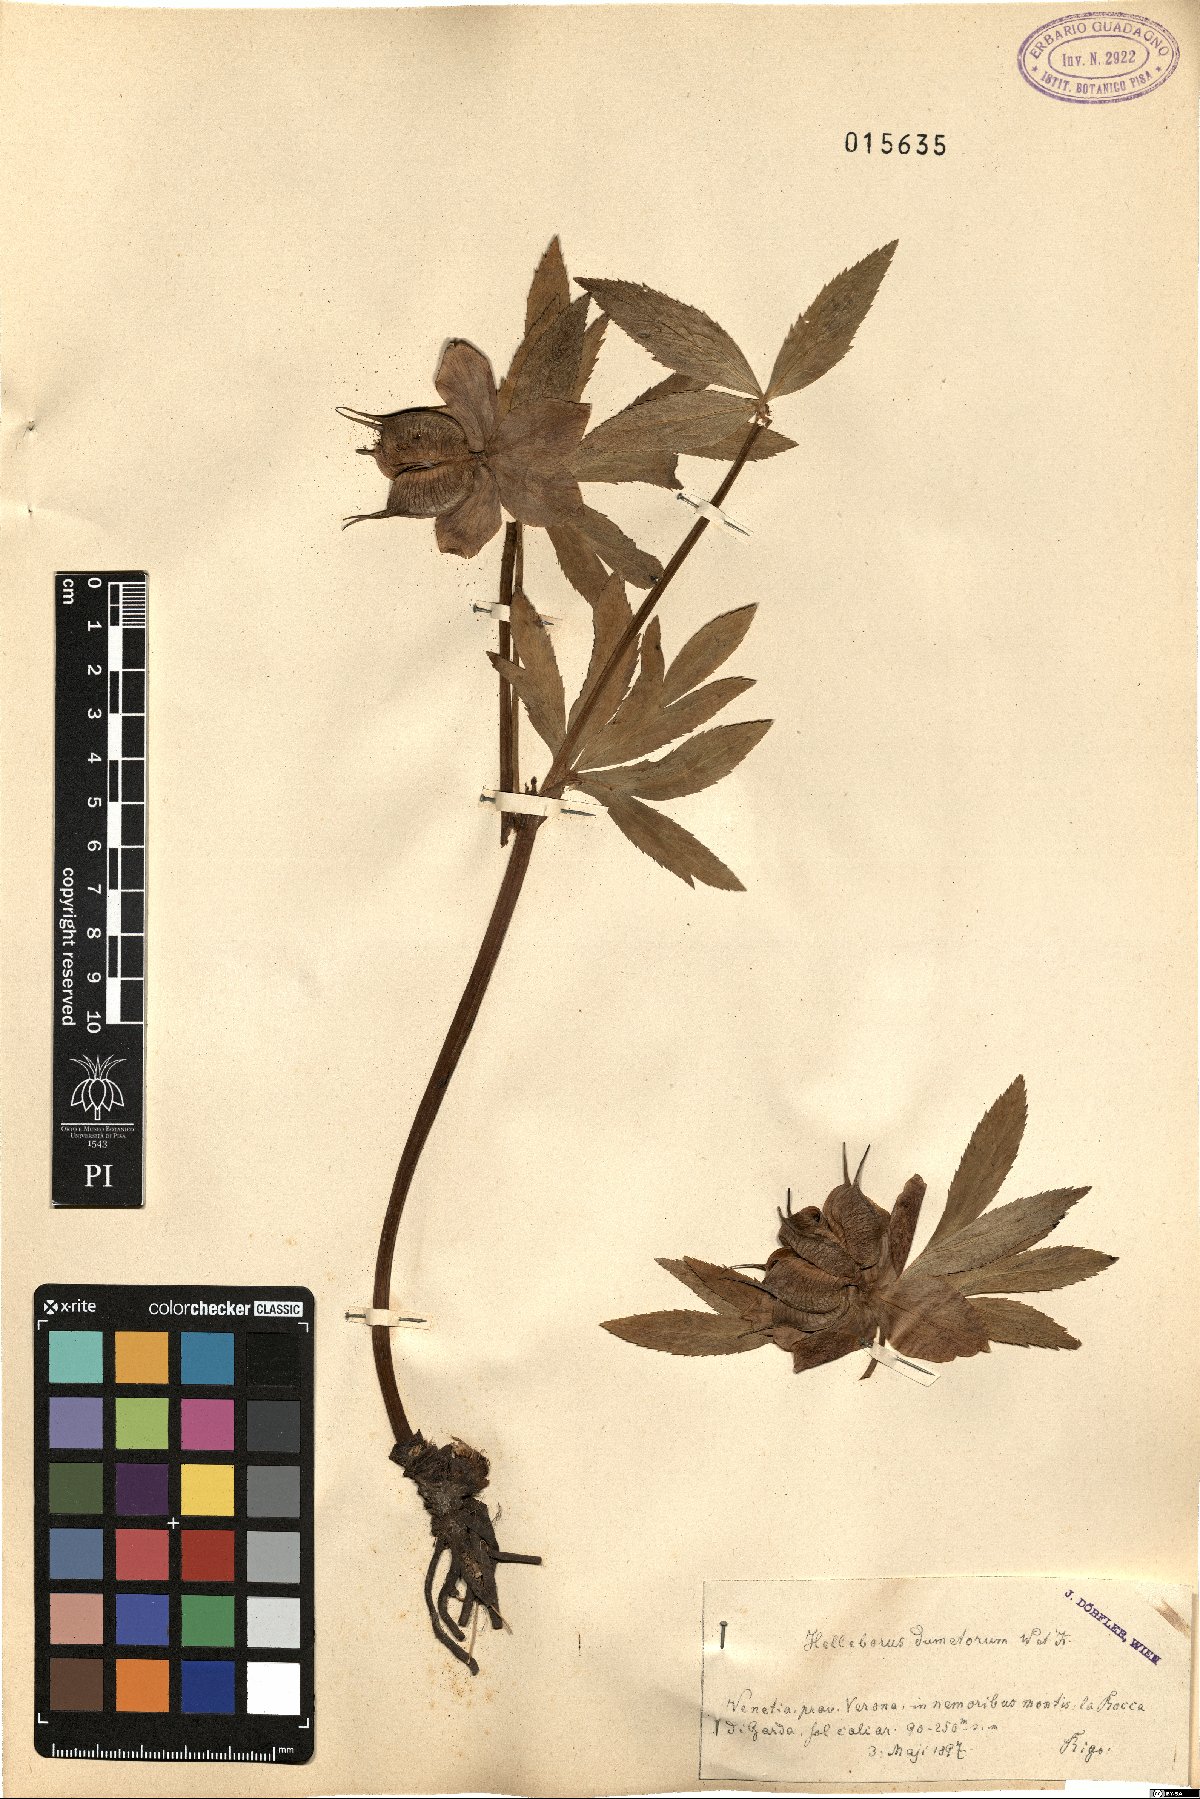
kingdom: Plantae
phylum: Tracheophyta
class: Magnoliopsida
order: Ranunculales
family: Ranunculaceae
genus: Helleborus
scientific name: Helleborus dumetorum
